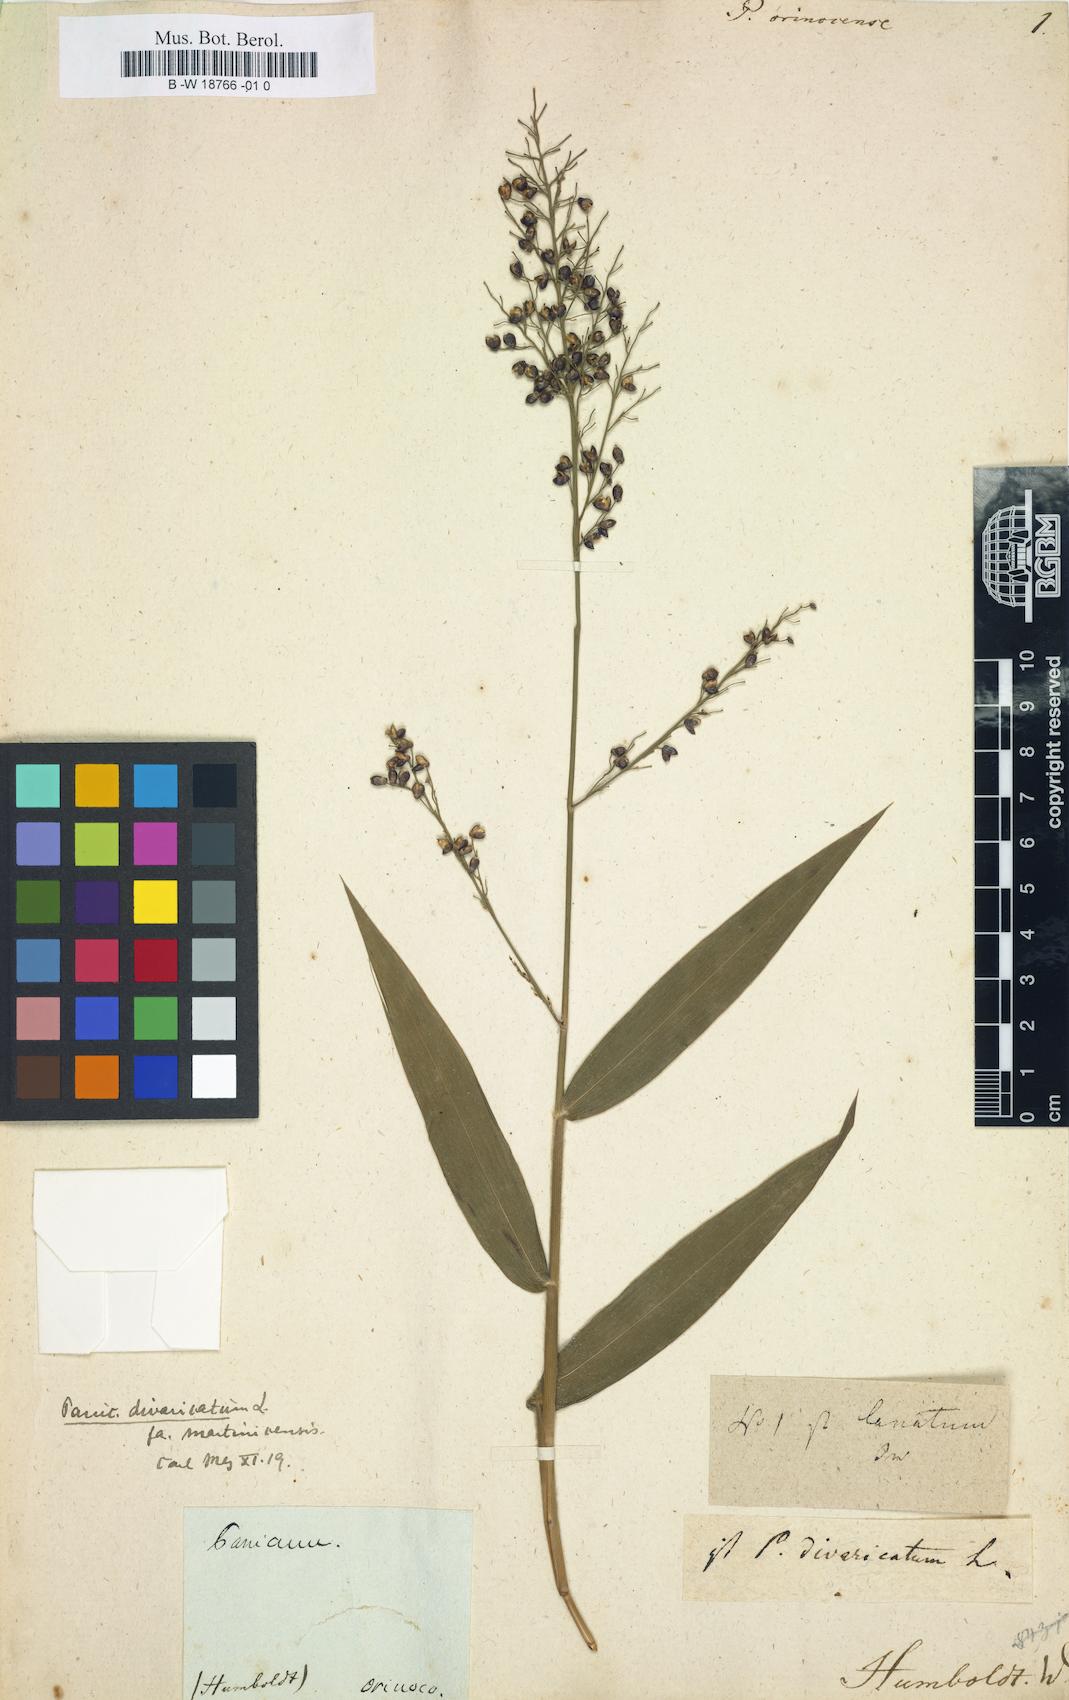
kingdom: Plantae
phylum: Tracheophyta
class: Liliopsida
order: Poales
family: Poaceae
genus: Lasiacis
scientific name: Lasiacis maculata
